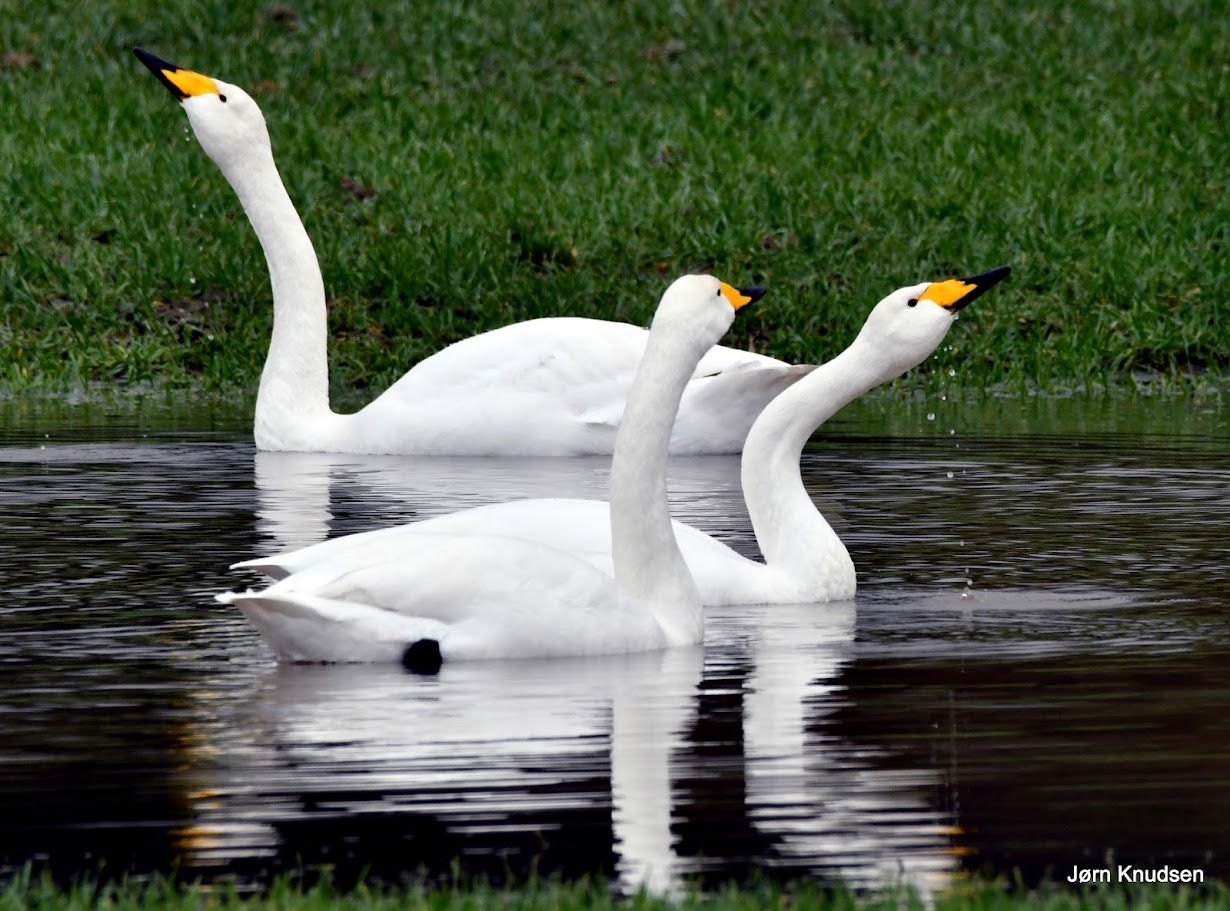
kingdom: Animalia
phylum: Chordata
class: Aves
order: Anseriformes
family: Anatidae
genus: Cygnus
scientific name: Cygnus cygnus
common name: Sangsvane
